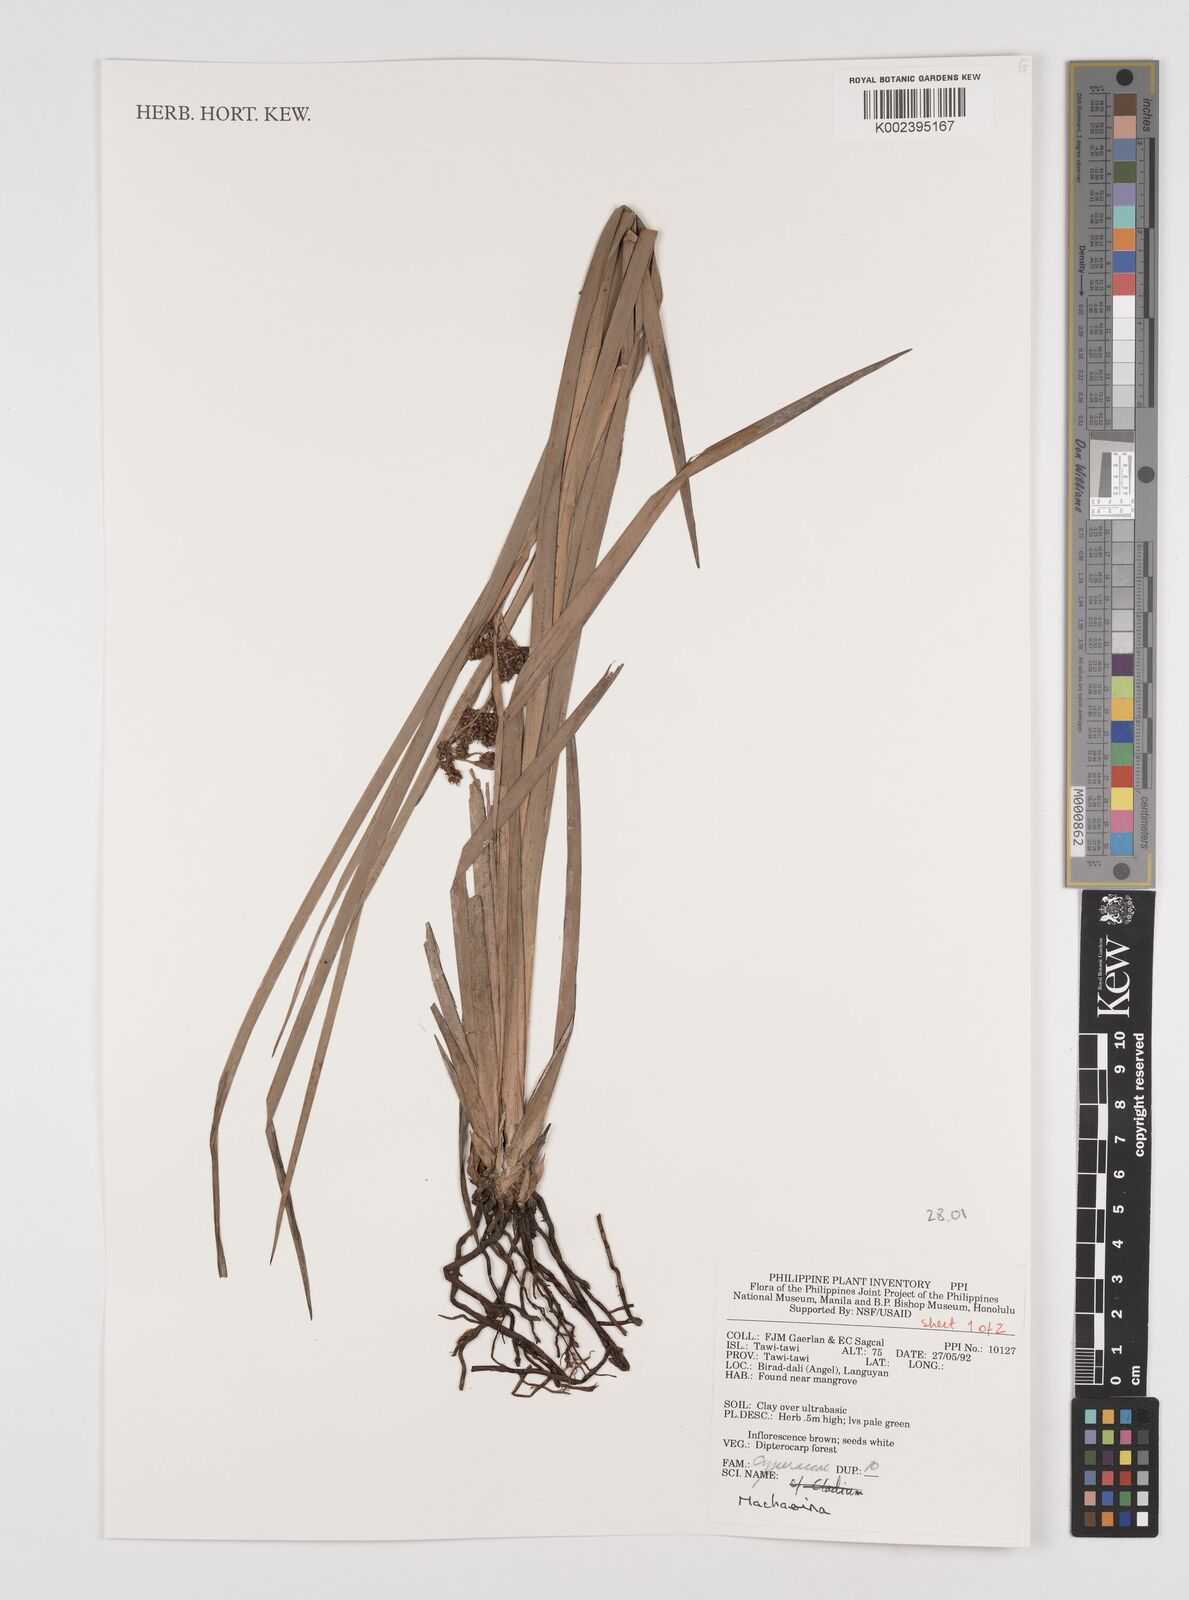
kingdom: Plantae
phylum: Tracheophyta
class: Liliopsida
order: Poales
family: Cyperaceae
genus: Machaerina
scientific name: Machaerina
